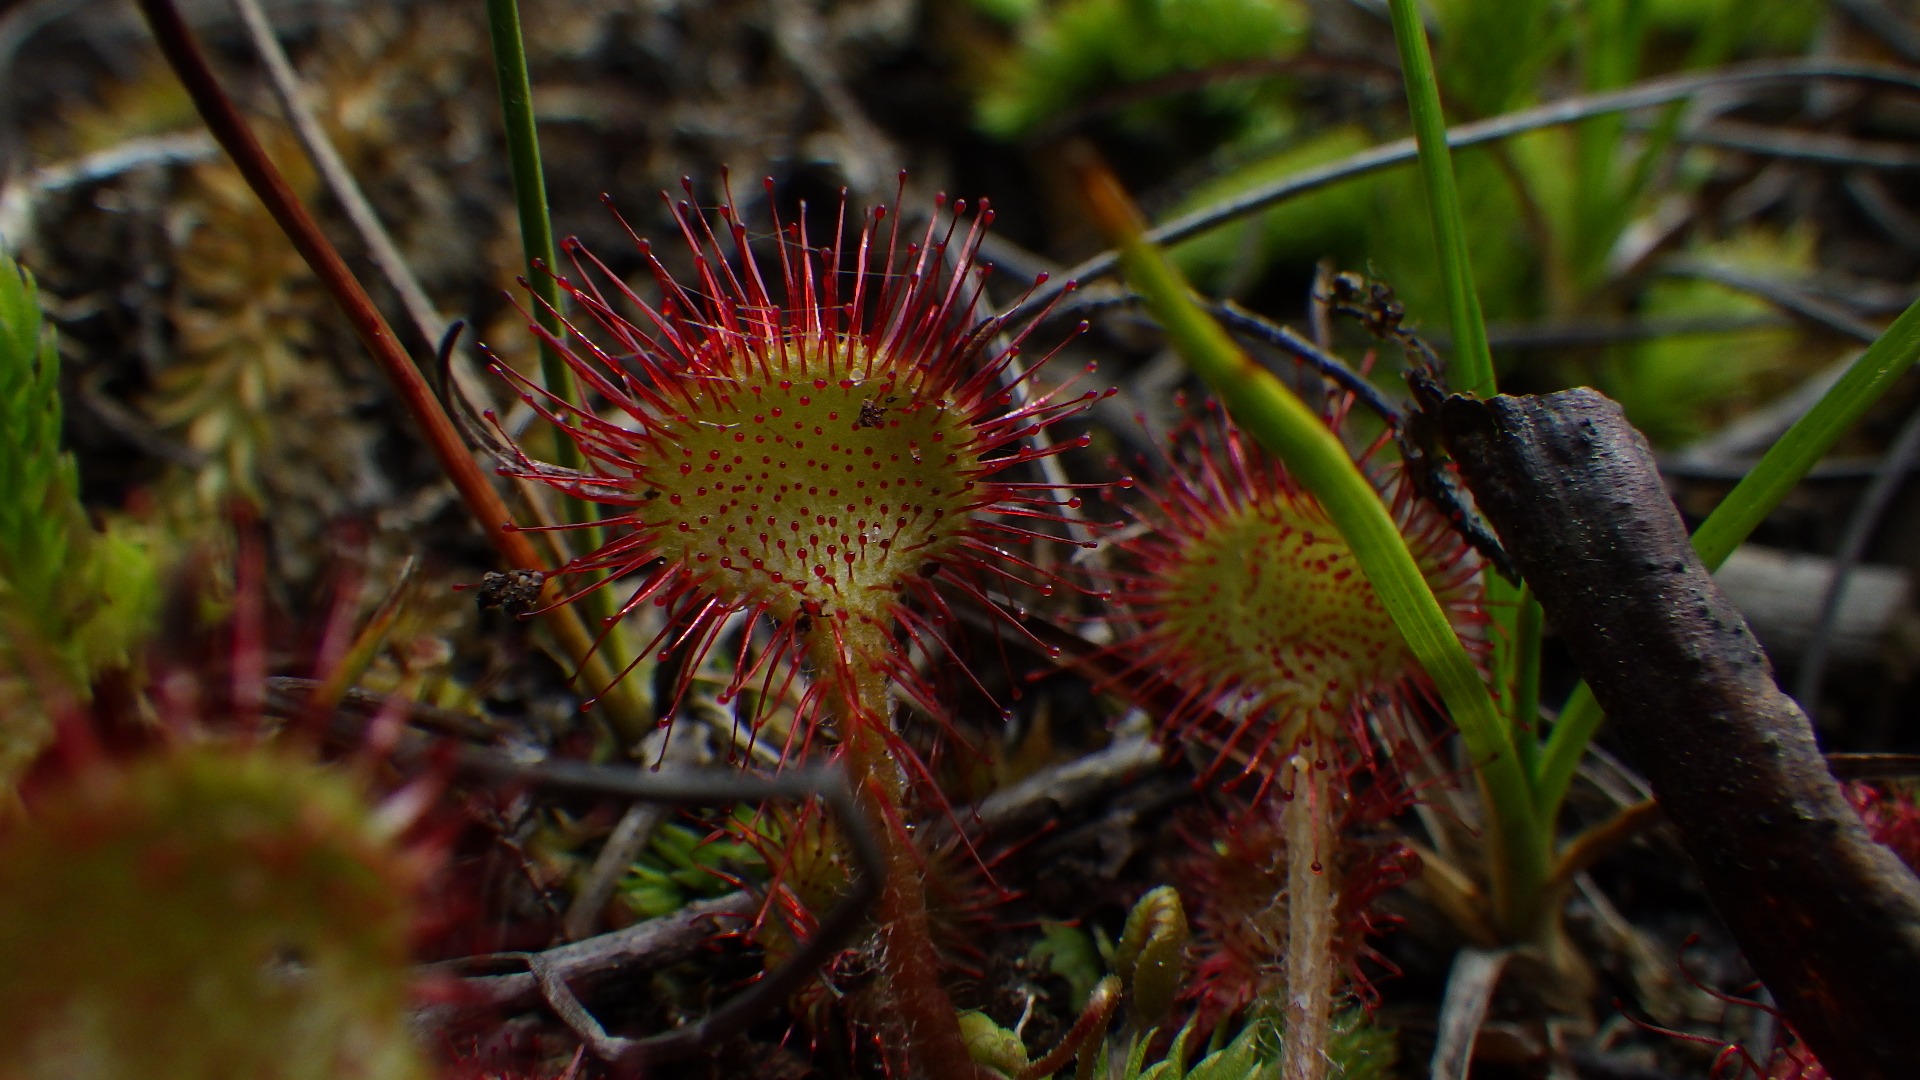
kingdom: Plantae
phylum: Tracheophyta
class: Magnoliopsida
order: Caryophyllales
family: Droseraceae
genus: Drosera
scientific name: Drosera rotundifolia
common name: Rundbladet soldug
